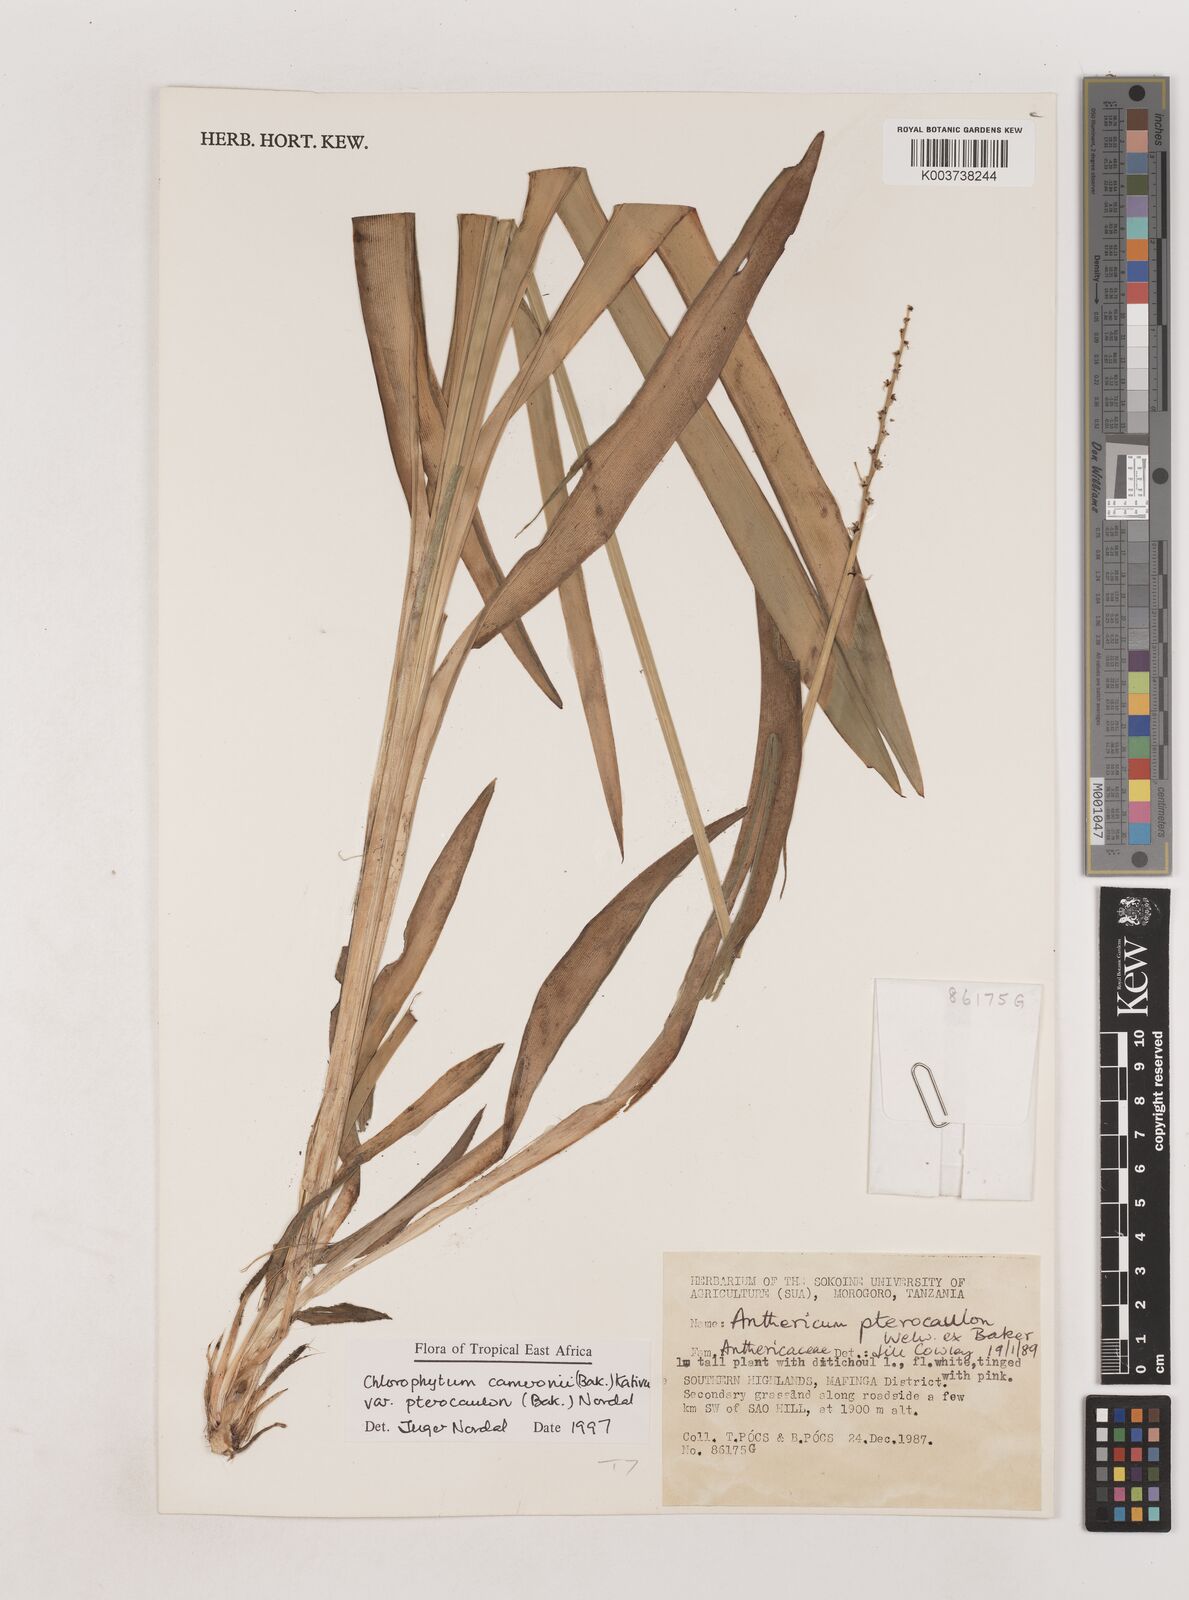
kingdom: Plantae
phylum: Tracheophyta
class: Liliopsida
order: Asparagales
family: Asparagaceae
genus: Chlorophytum
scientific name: Chlorophytum cameronii
